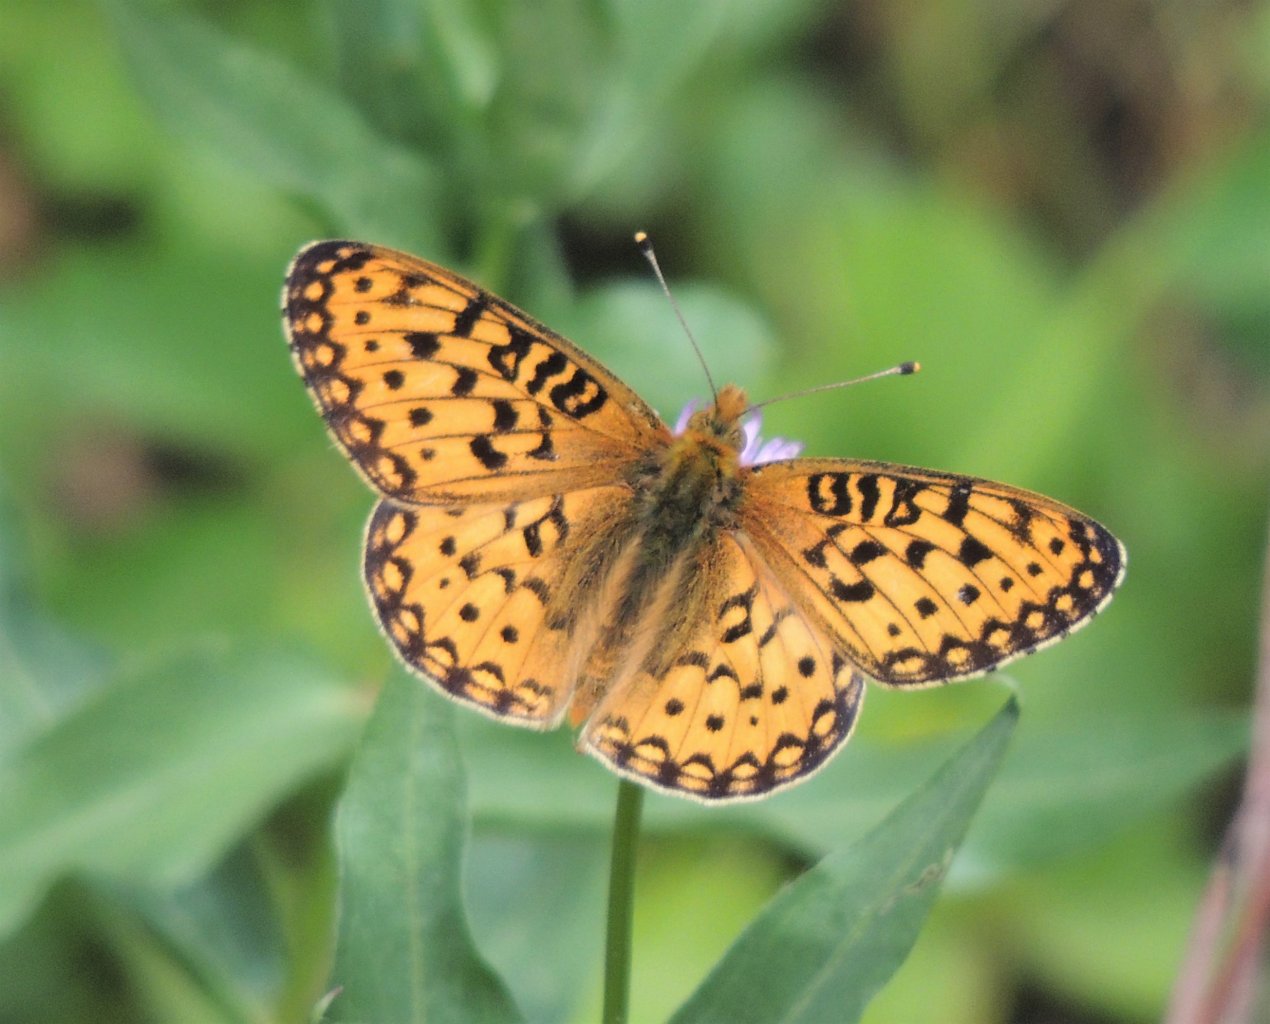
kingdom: Animalia
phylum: Arthropoda
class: Insecta
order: Lepidoptera
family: Nymphalidae
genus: Speyeria
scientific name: Speyeria mormonia
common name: Mormon Fritillary
